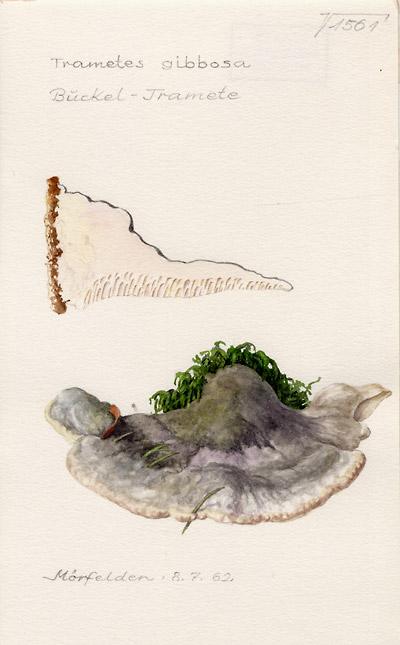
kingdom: Fungi
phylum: Basidiomycota
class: Agaricomycetes
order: Polyporales
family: Polyporaceae
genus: Trametes
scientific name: Trametes gibbosa
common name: Lumpy bracket
